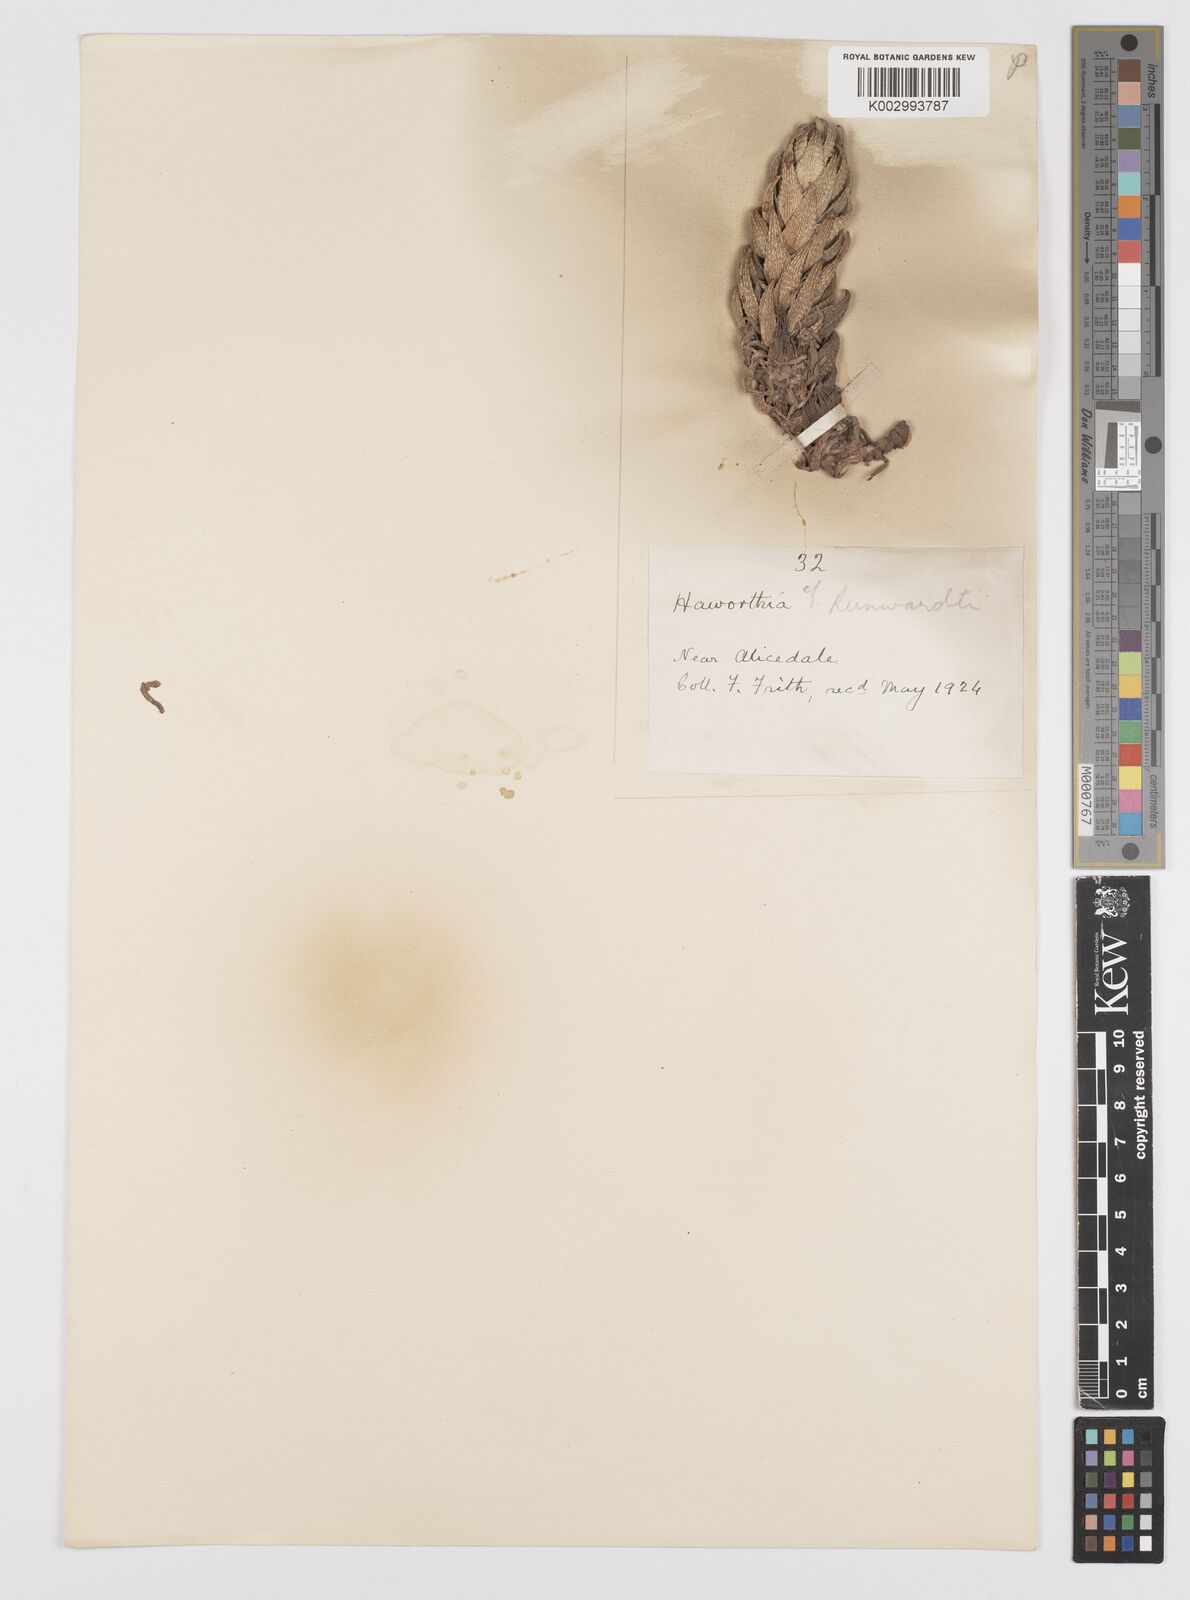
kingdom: Plantae
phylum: Tracheophyta
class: Liliopsida
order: Asparagales
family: Asphodelaceae
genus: Haworthiopsis
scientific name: Haworthiopsis reinwardtii
